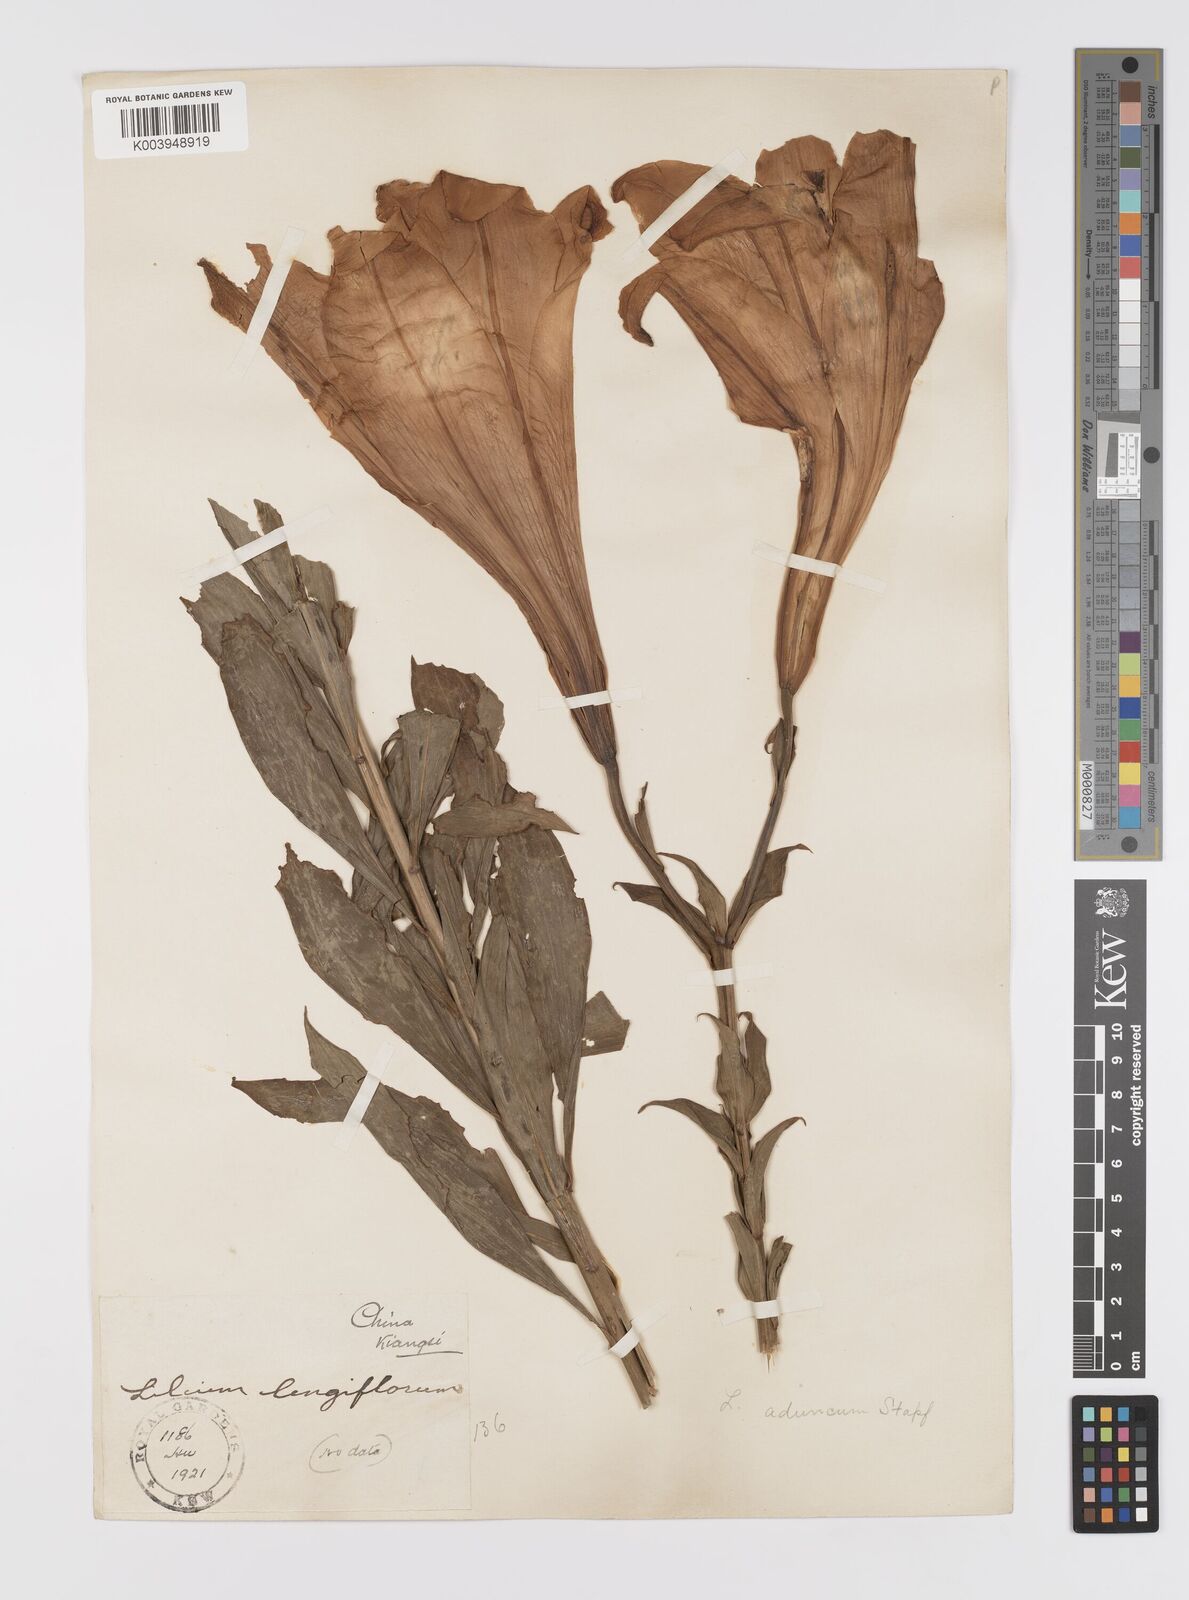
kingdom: Plantae
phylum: Tracheophyta
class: Liliopsida
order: Liliales
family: Liliaceae
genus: Lilium
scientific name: Lilium brownii
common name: Brown's lily
